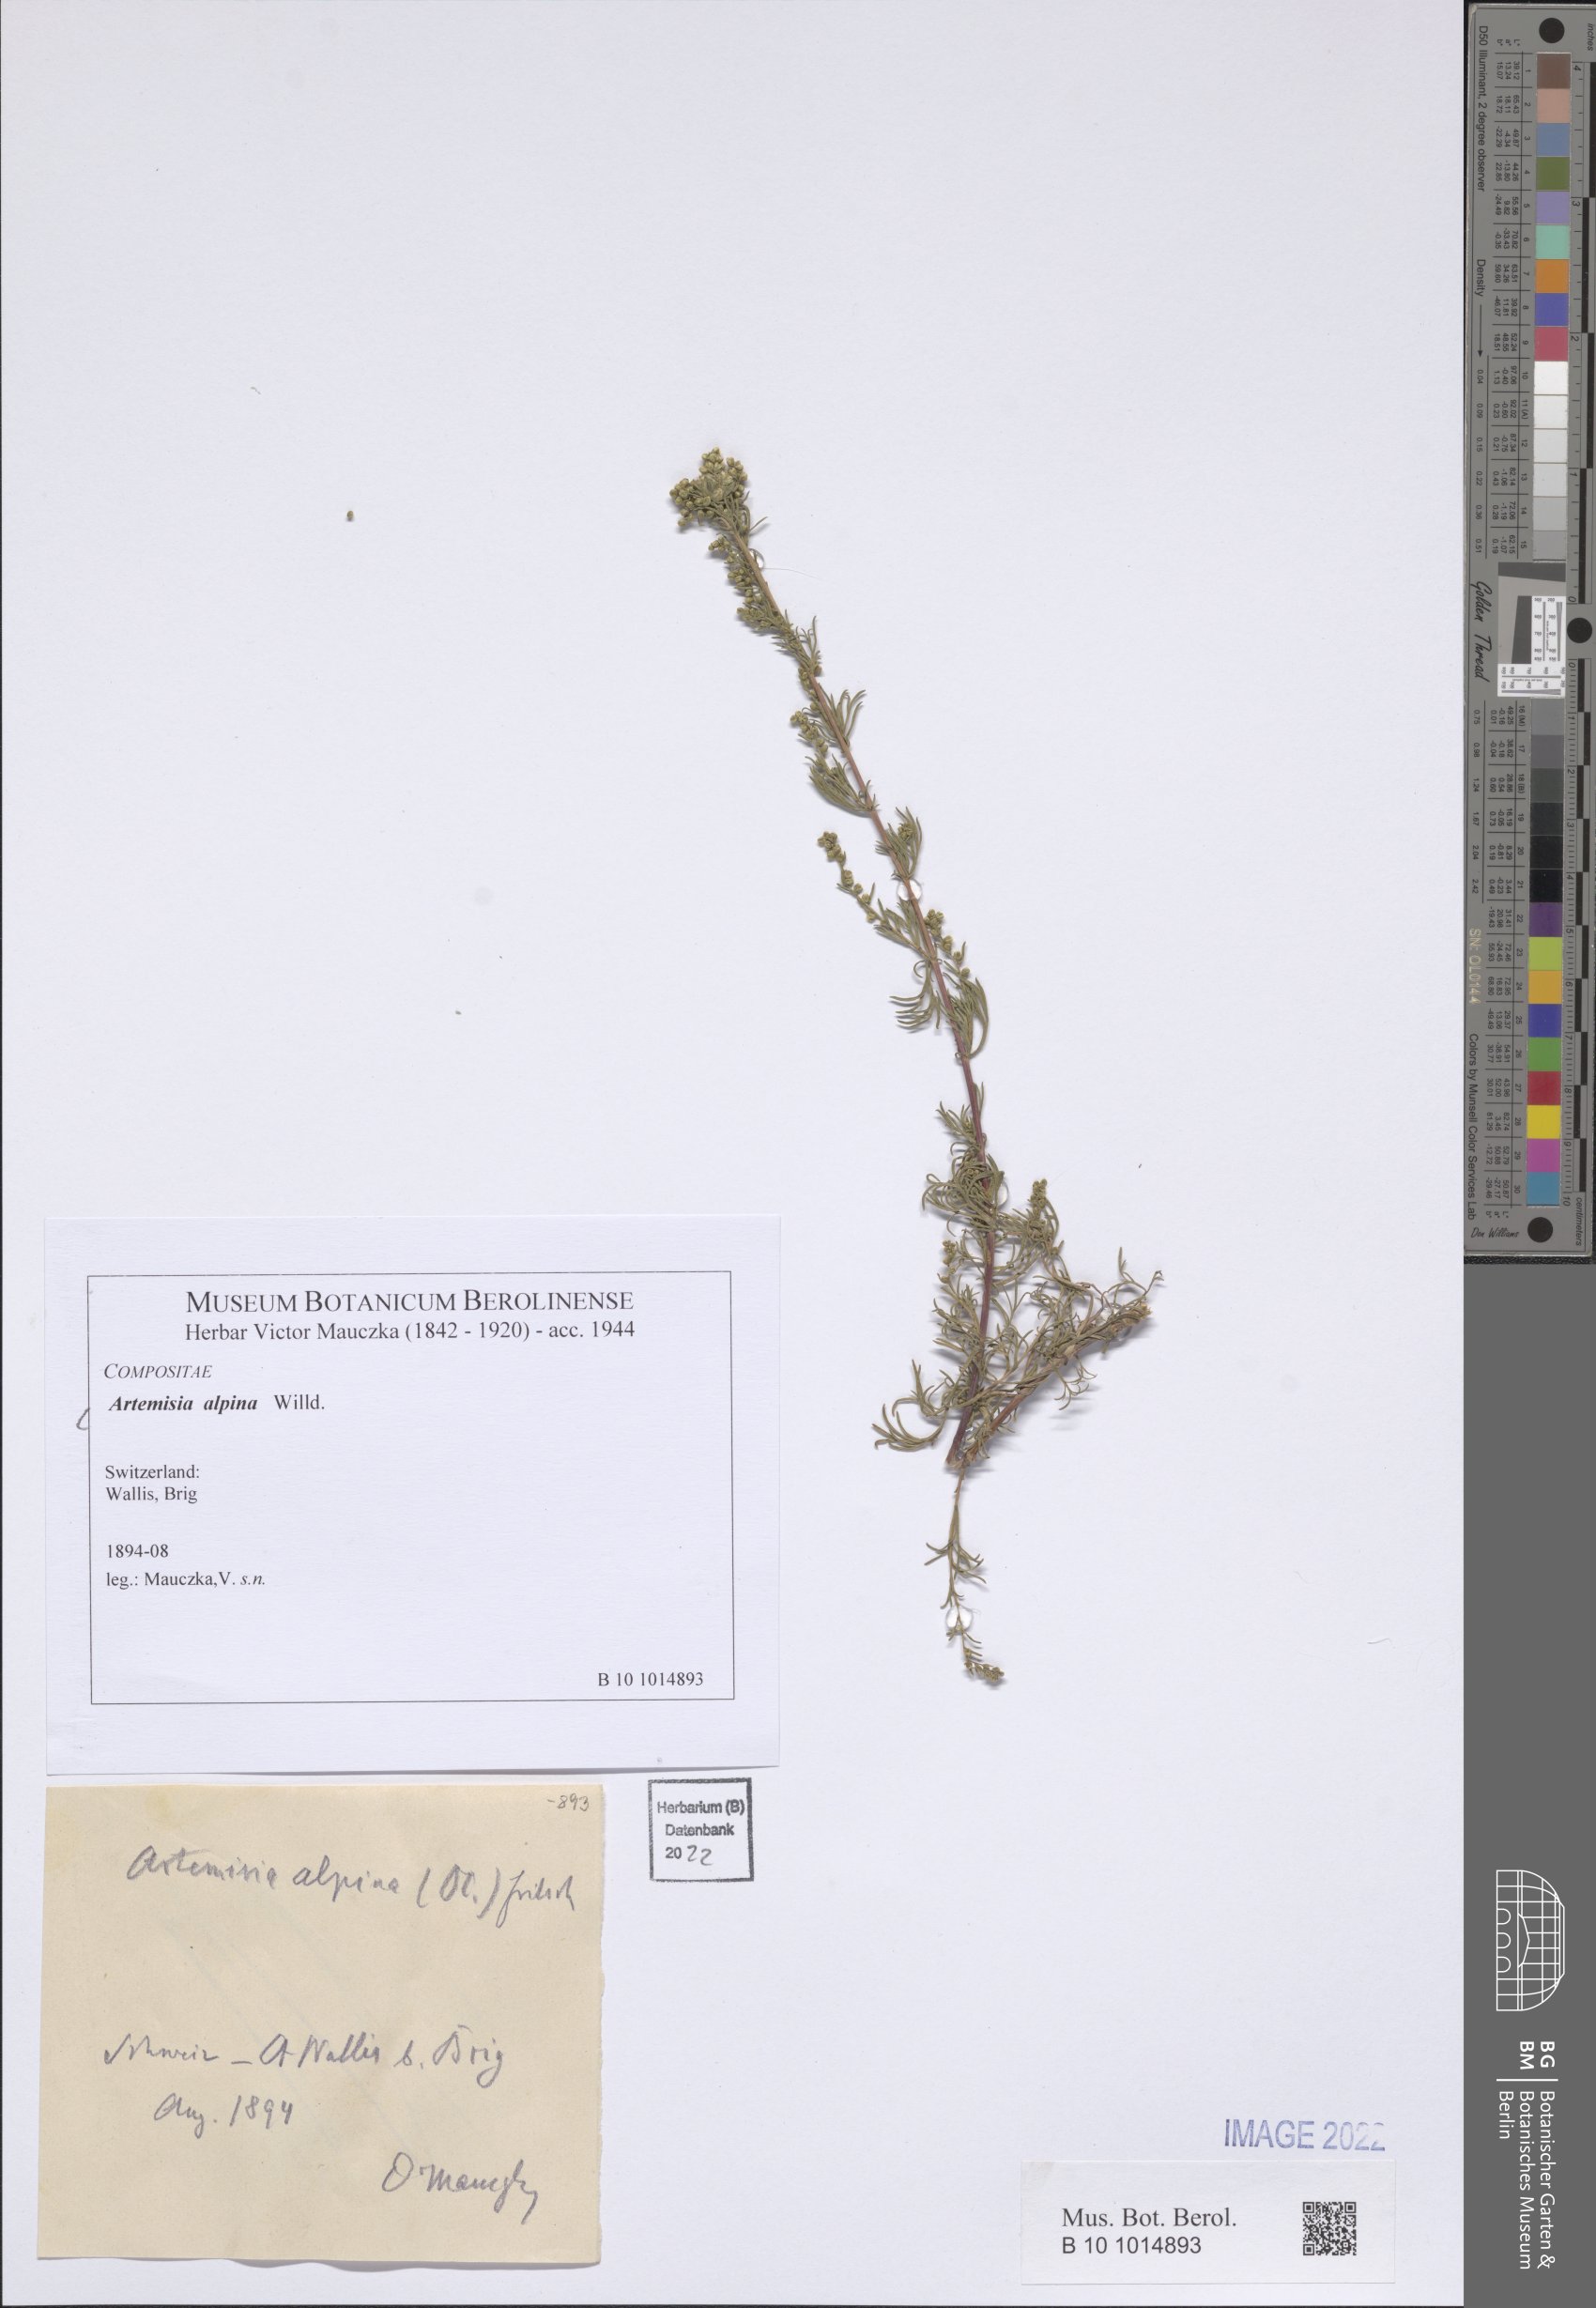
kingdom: Plantae
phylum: Tracheophyta
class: Magnoliopsida
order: Asterales
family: Asteraceae
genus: Artemisia
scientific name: Artemisia alpina
